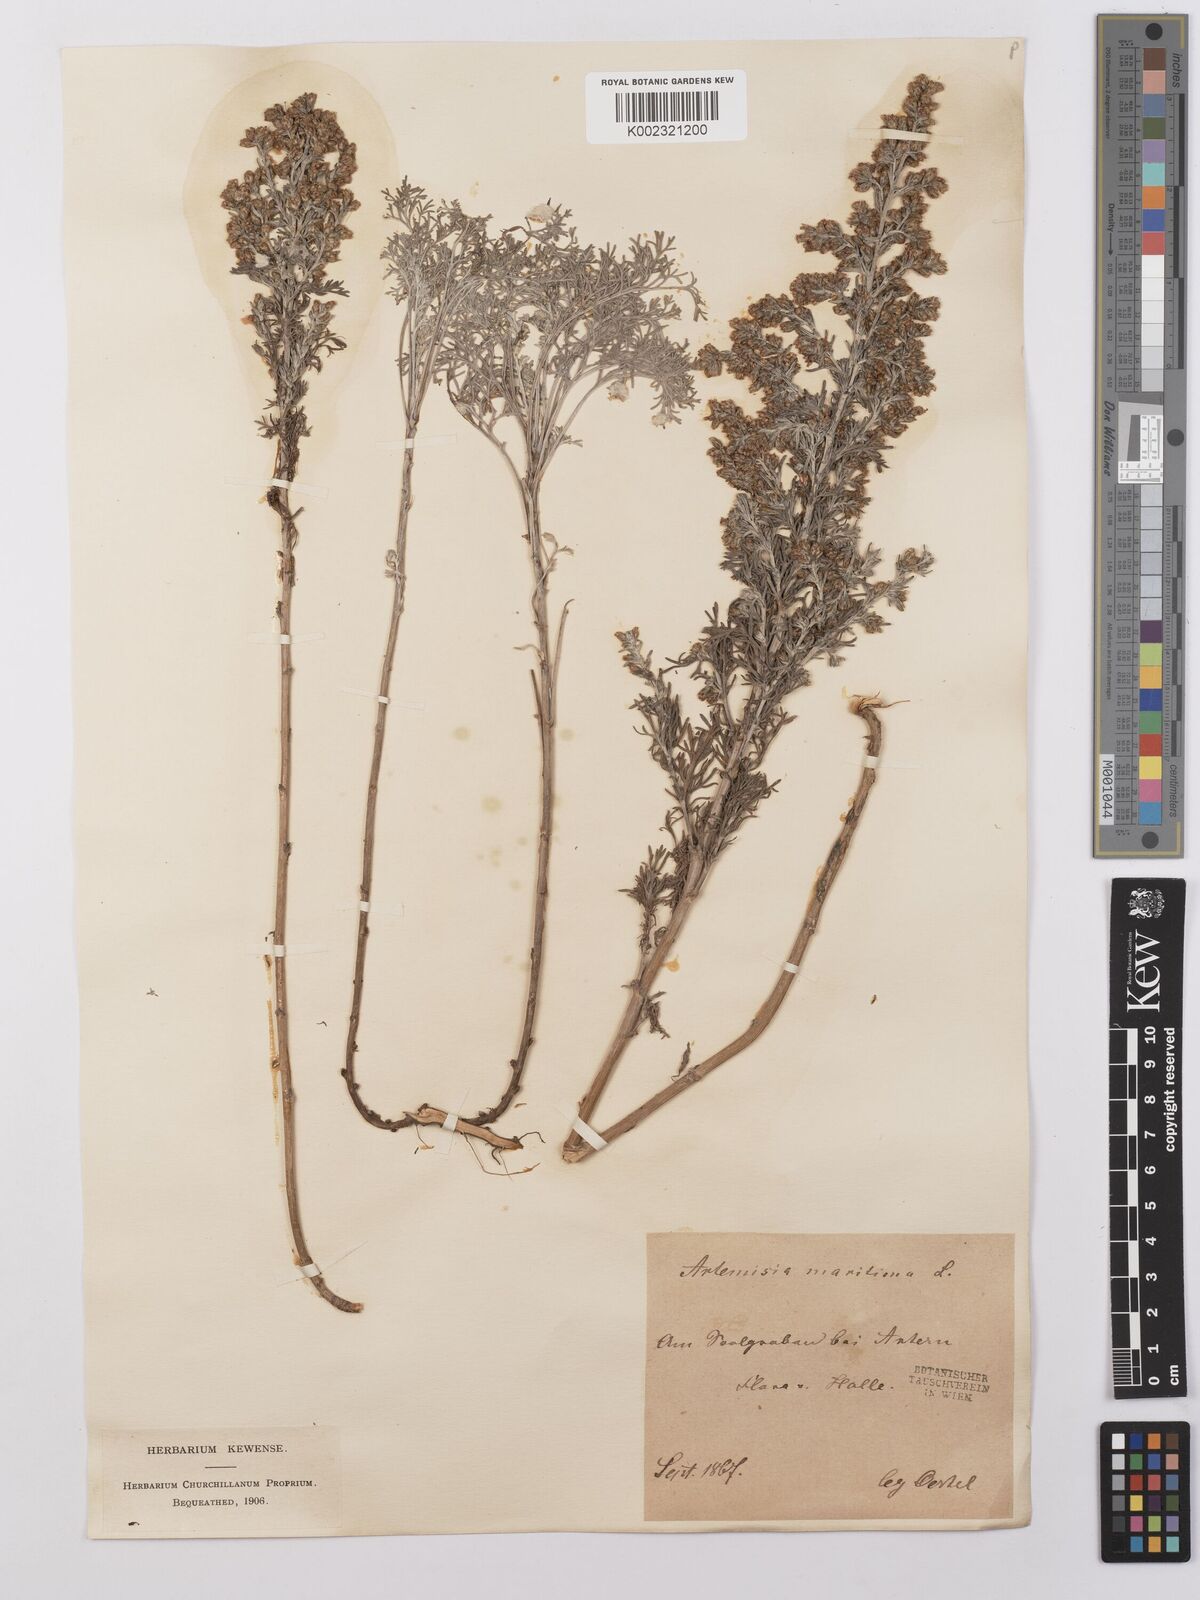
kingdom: Plantae
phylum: Tracheophyta
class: Magnoliopsida
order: Asterales
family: Asteraceae
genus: Artemisia
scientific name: Artemisia maritima
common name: Wormseed
